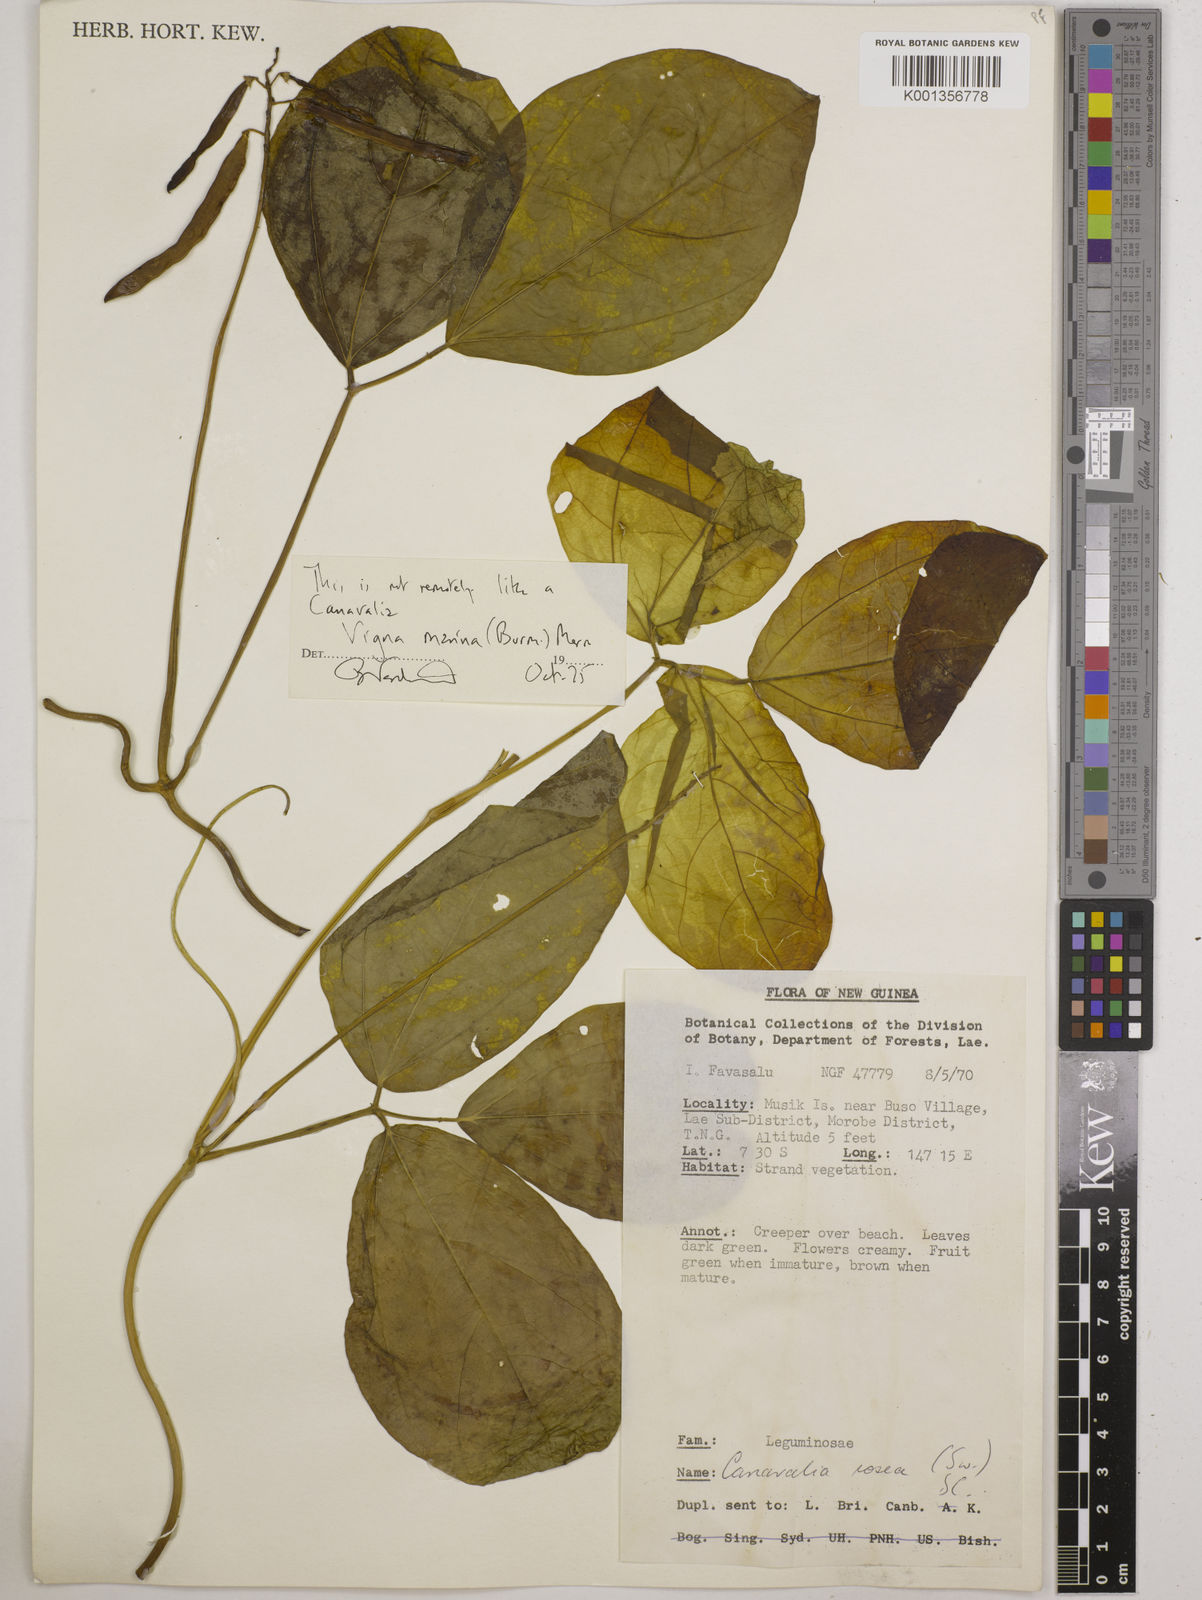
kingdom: Plantae
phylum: Tracheophyta
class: Magnoliopsida
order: Fabales
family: Fabaceae
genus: Vigna
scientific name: Vigna marina
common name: Dune-bean
